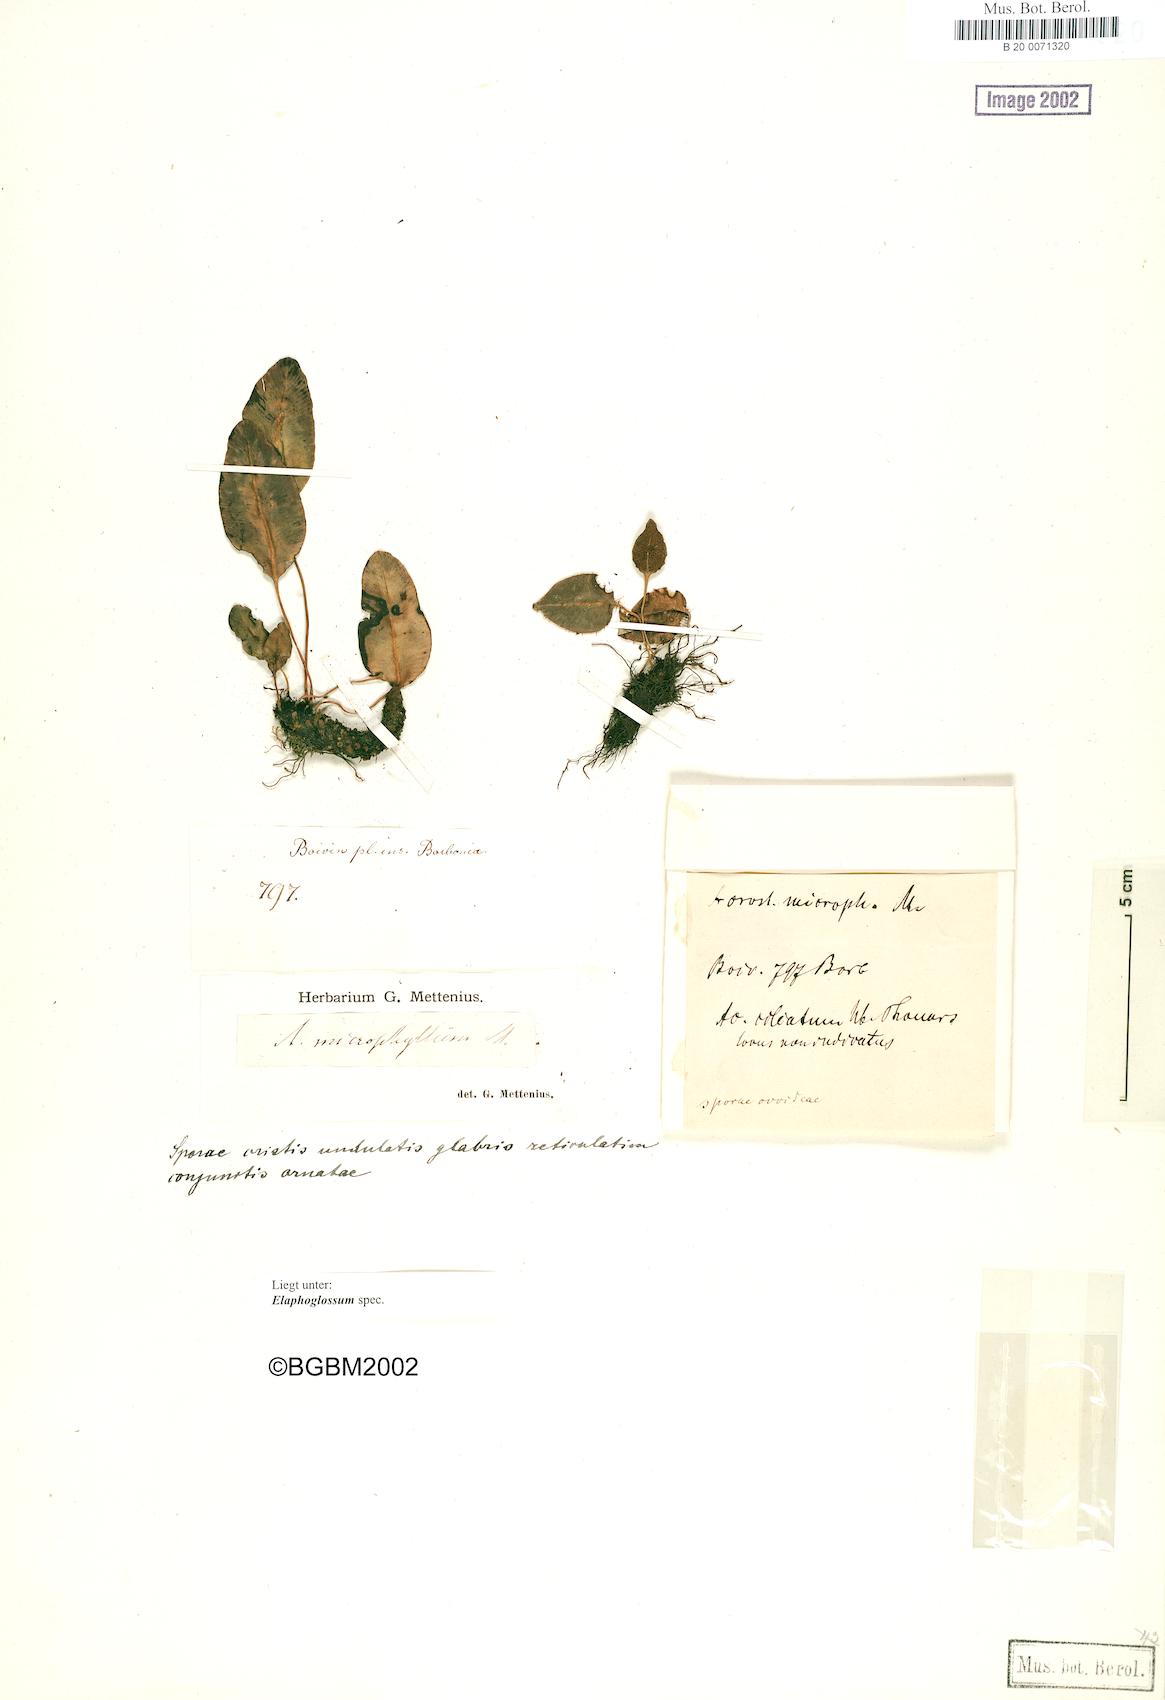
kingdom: Plantae
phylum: Tracheophyta
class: Polypodiopsida
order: Polypodiales
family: Dryopteridaceae
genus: Elaphoglossum
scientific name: Elaphoglossum
